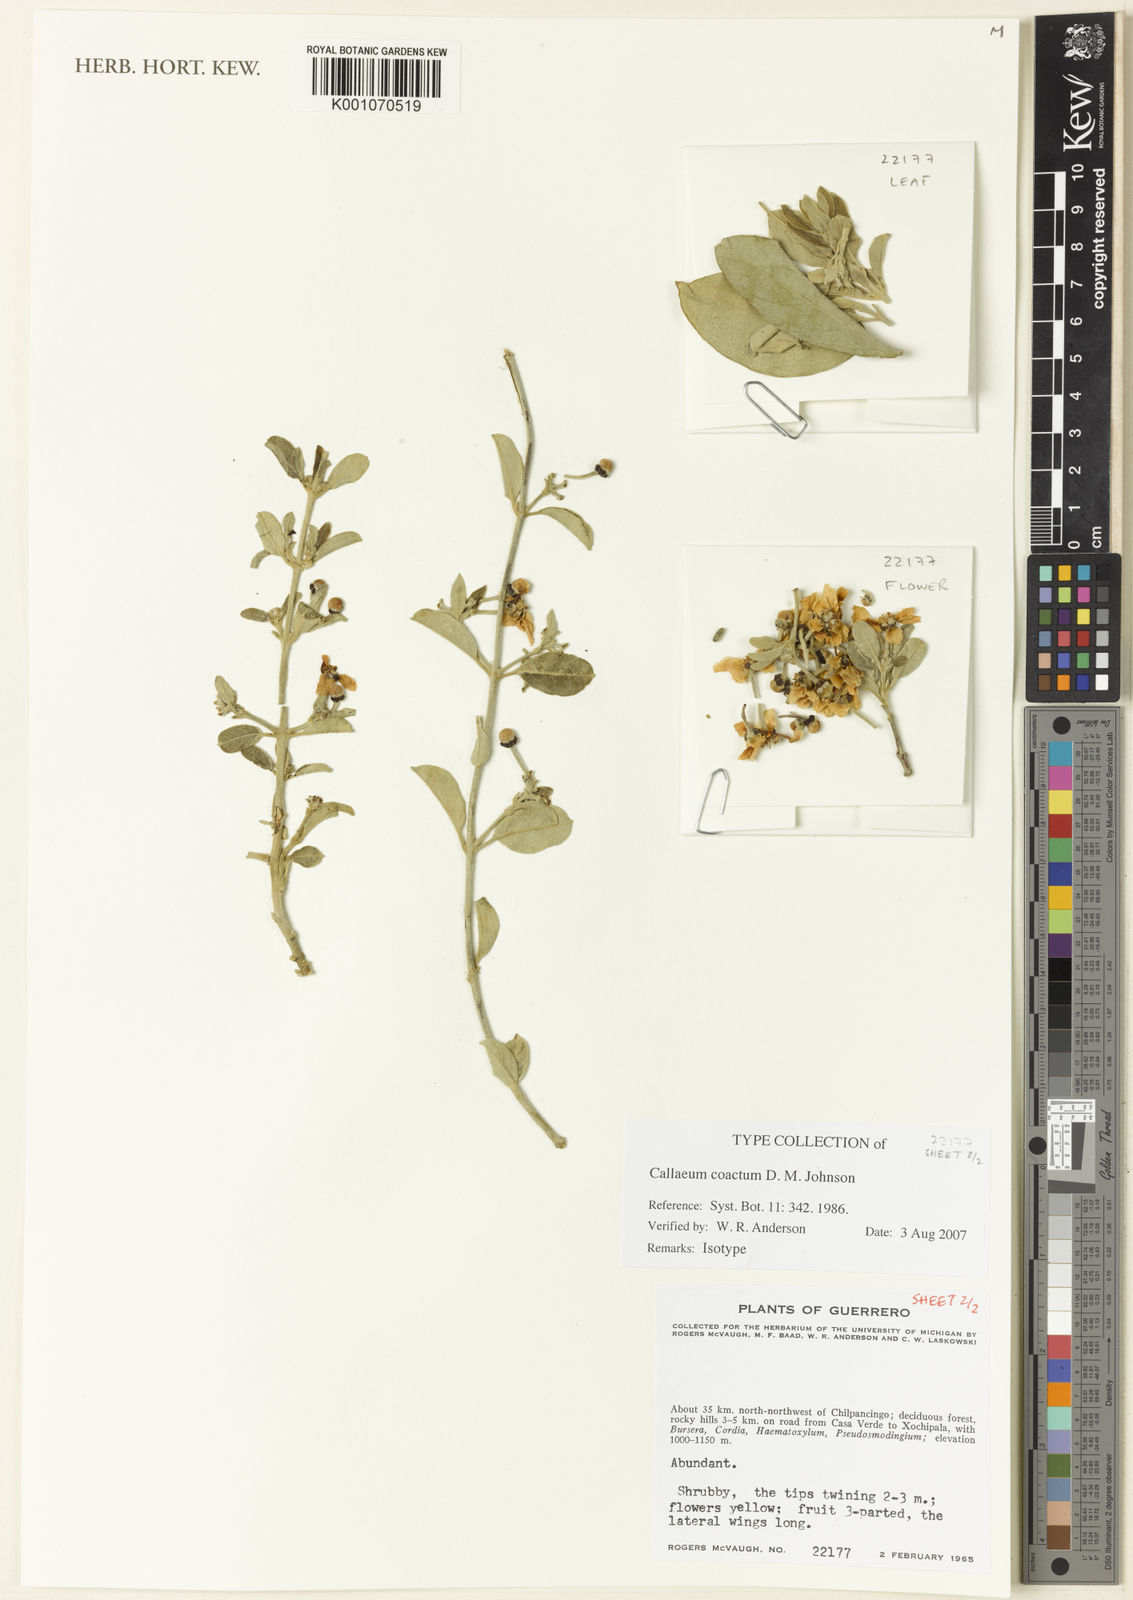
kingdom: Plantae
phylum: Tracheophyta
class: Magnoliopsida
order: Malpighiales
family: Malpighiaceae
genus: Callaeum
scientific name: Callaeum coactum
